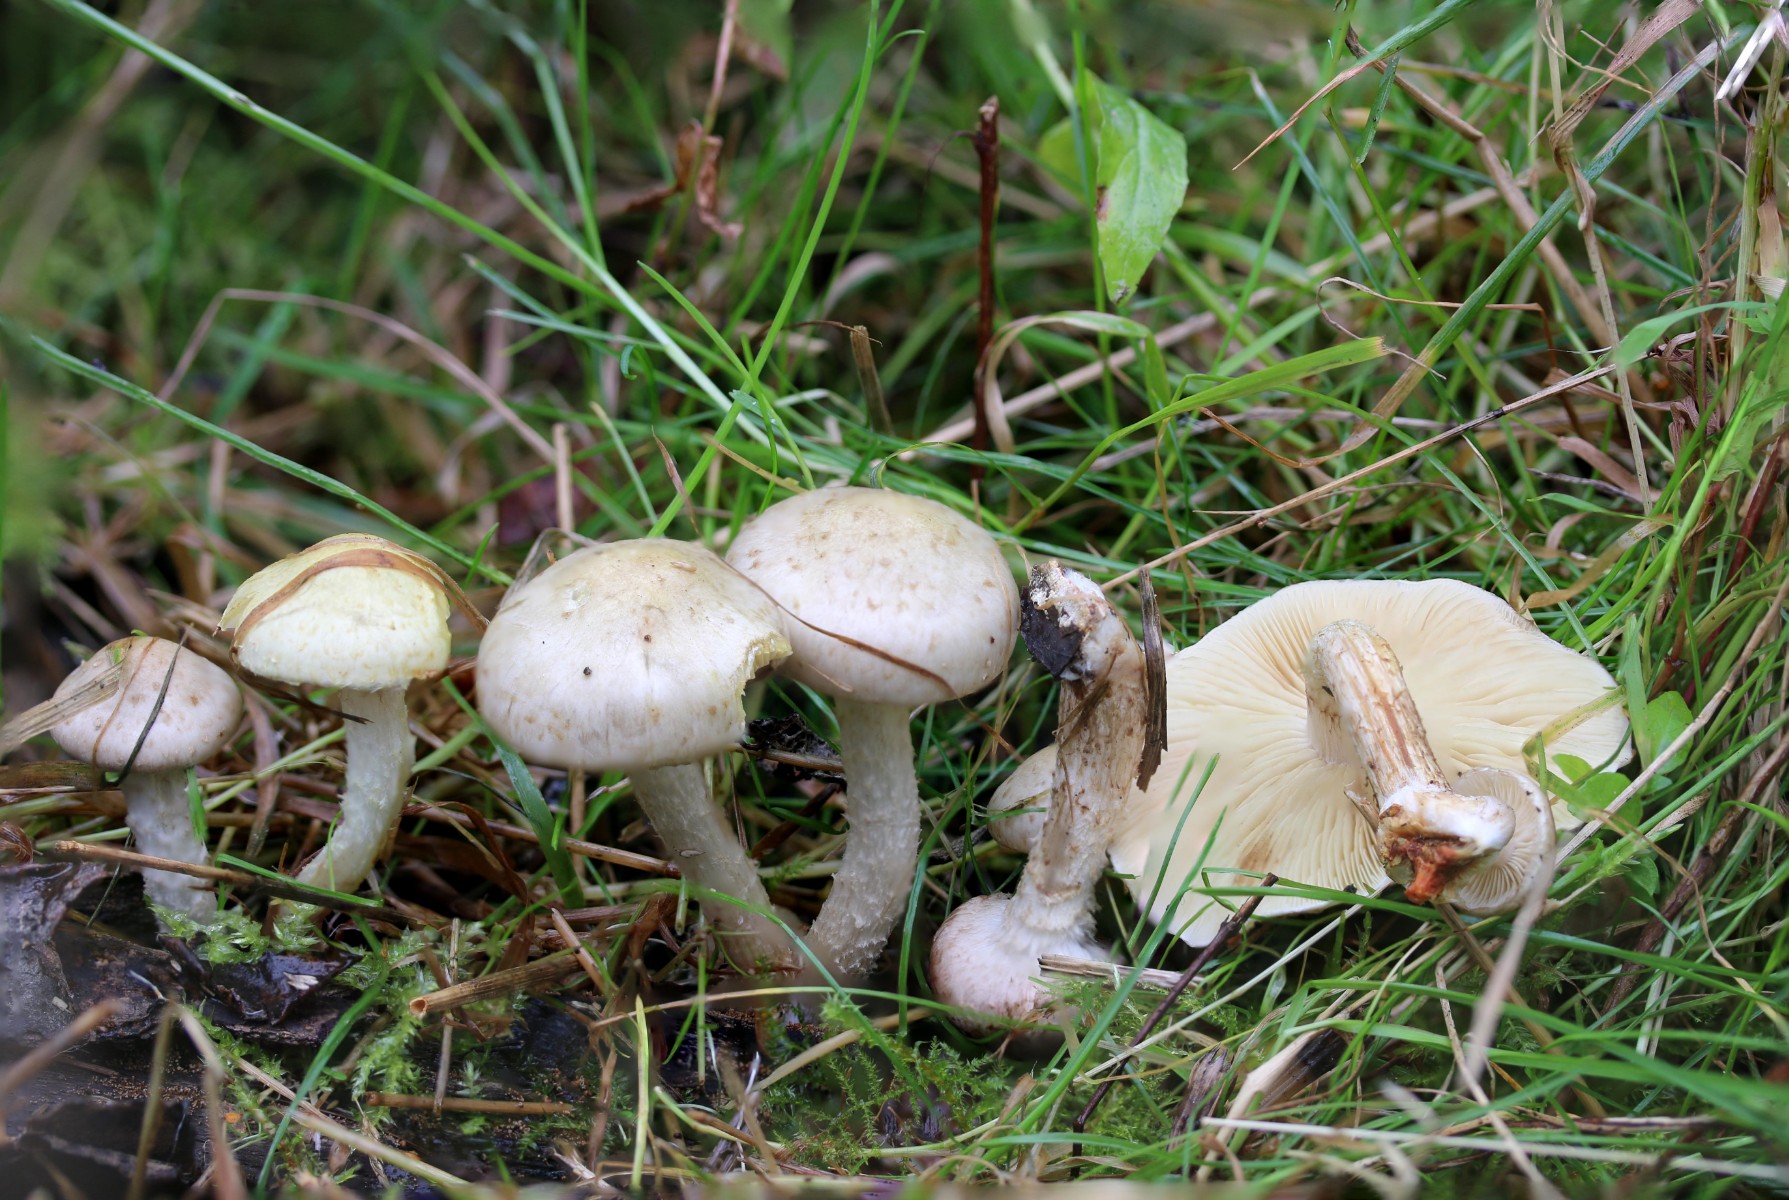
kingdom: Fungi
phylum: Basidiomycota
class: Agaricomycetes
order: Agaricales
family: Strophariaceae
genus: Pholiota
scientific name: Pholiota gummosa
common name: grøngul skælhat
